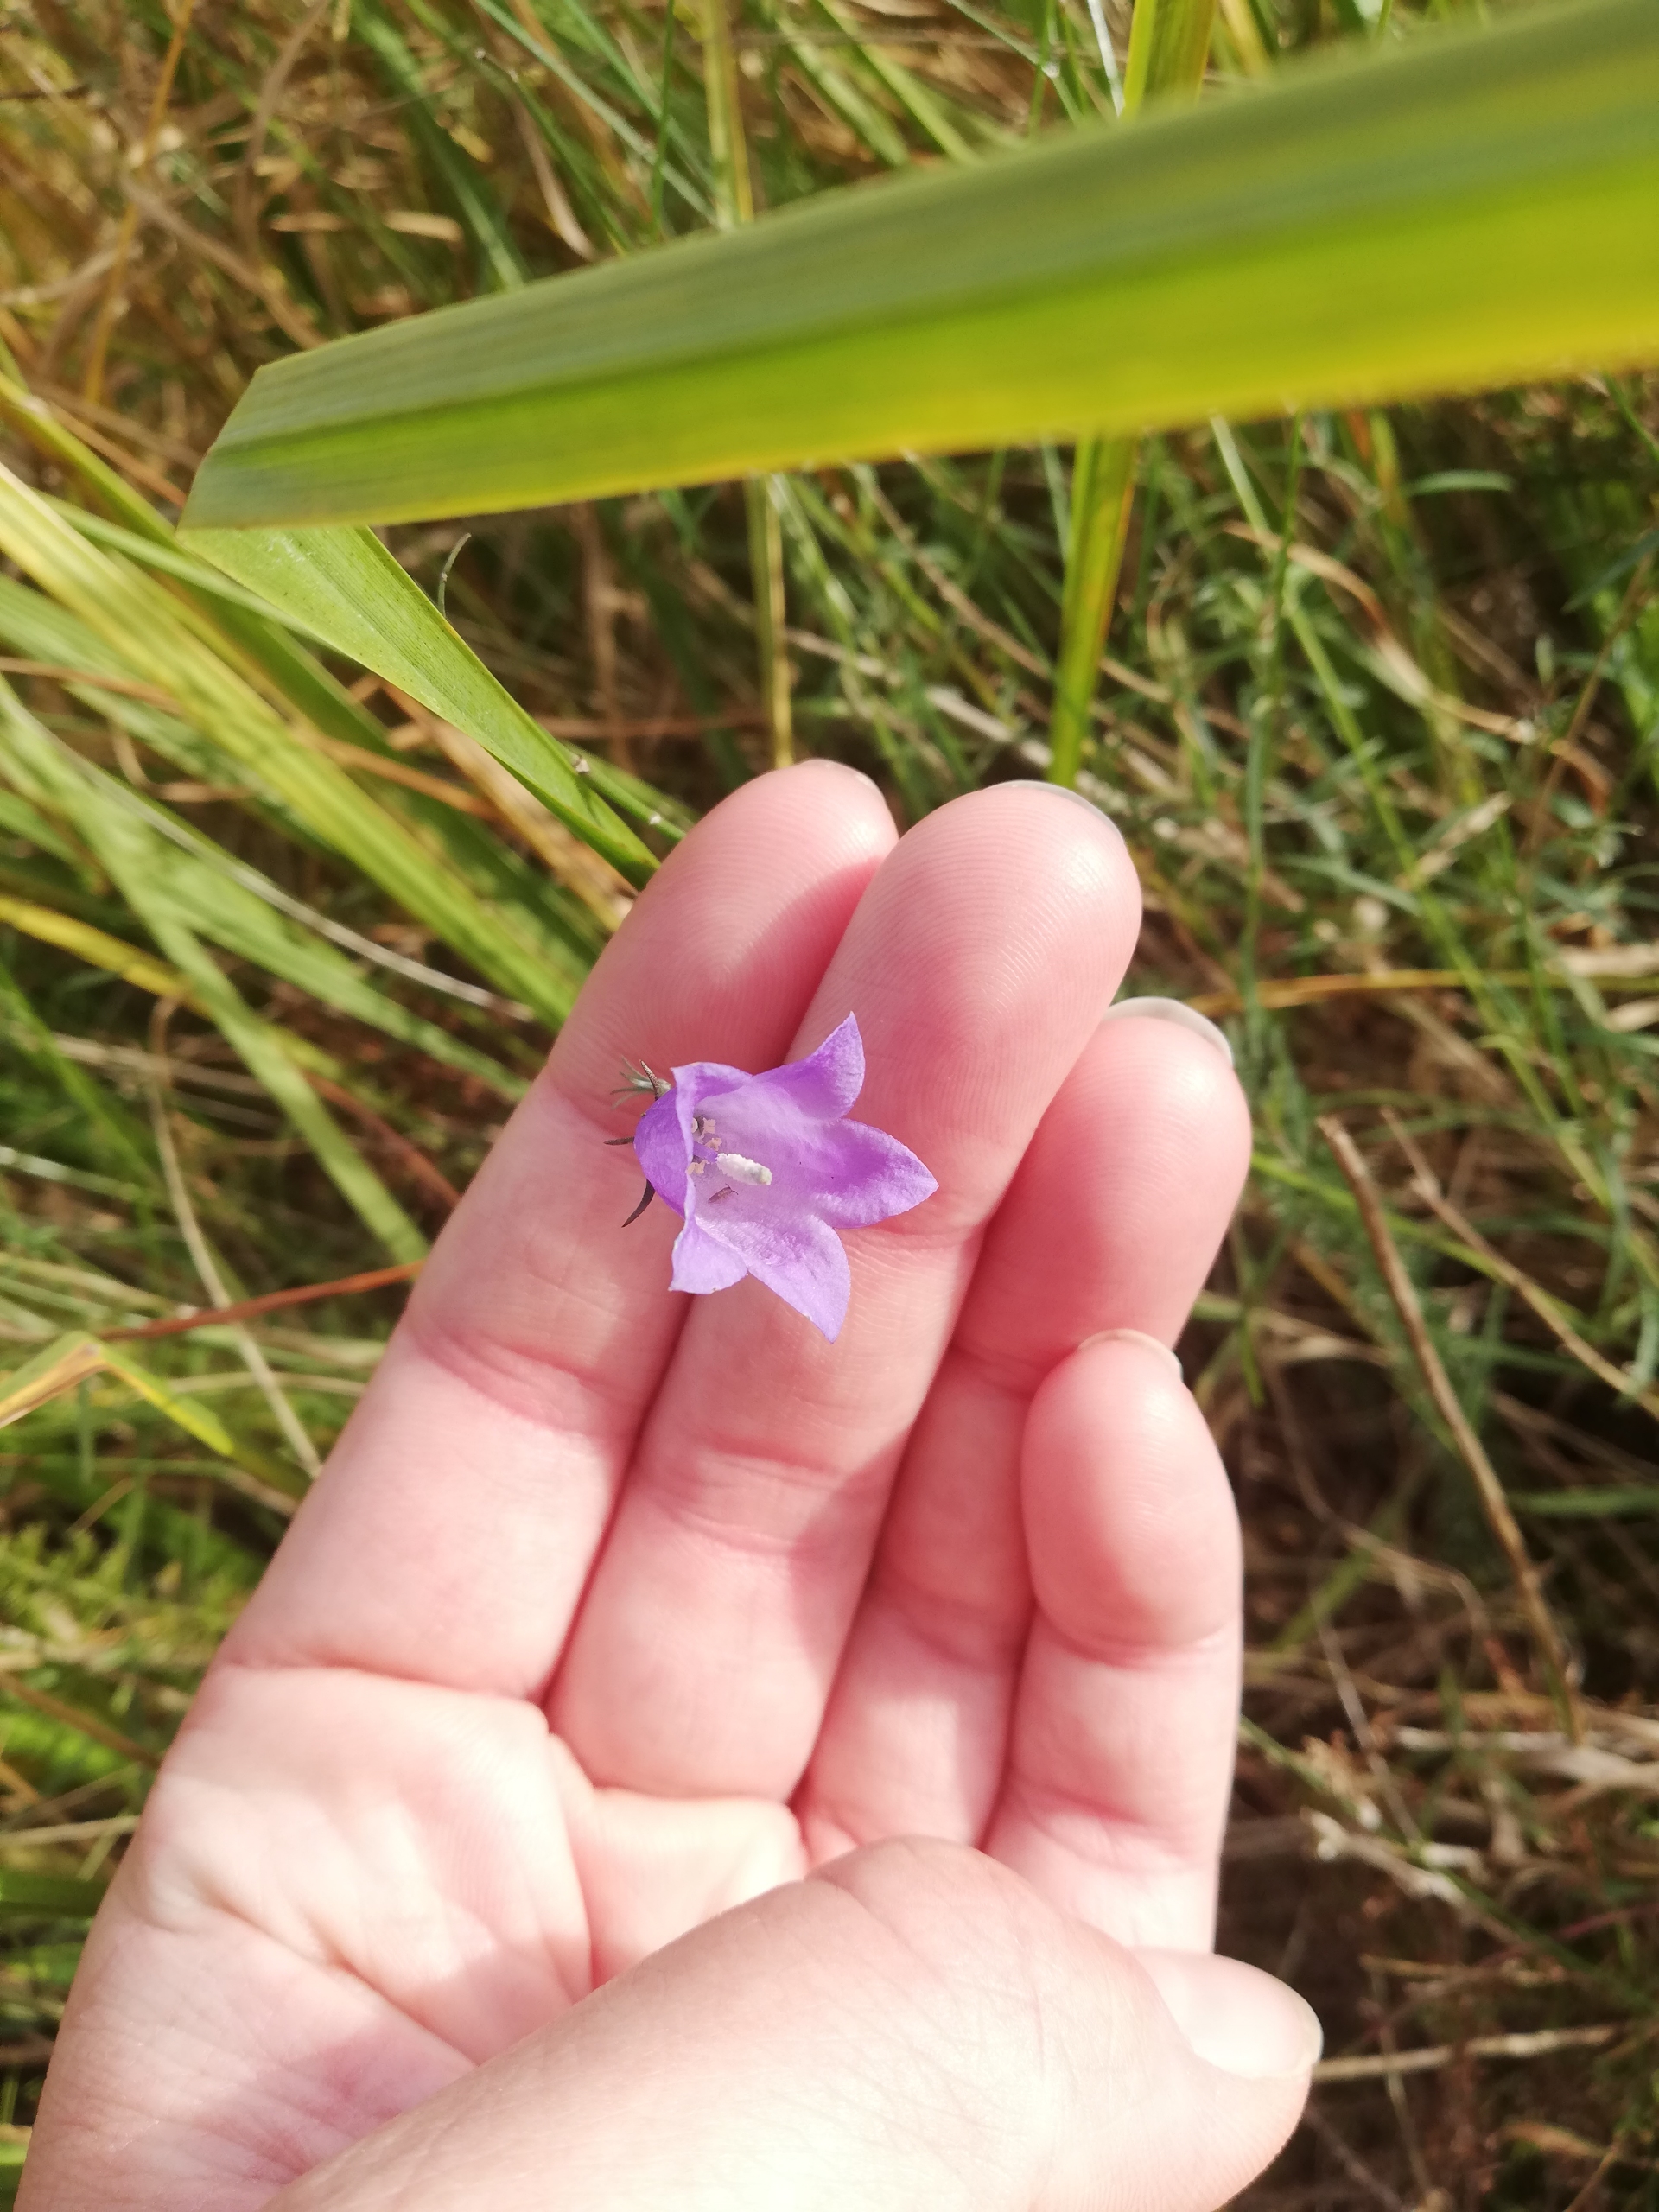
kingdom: Plantae
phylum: Tracheophyta
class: Magnoliopsida
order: Asterales
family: Campanulaceae
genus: Campanula
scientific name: Campanula rotundifolia
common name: Liden klokke
